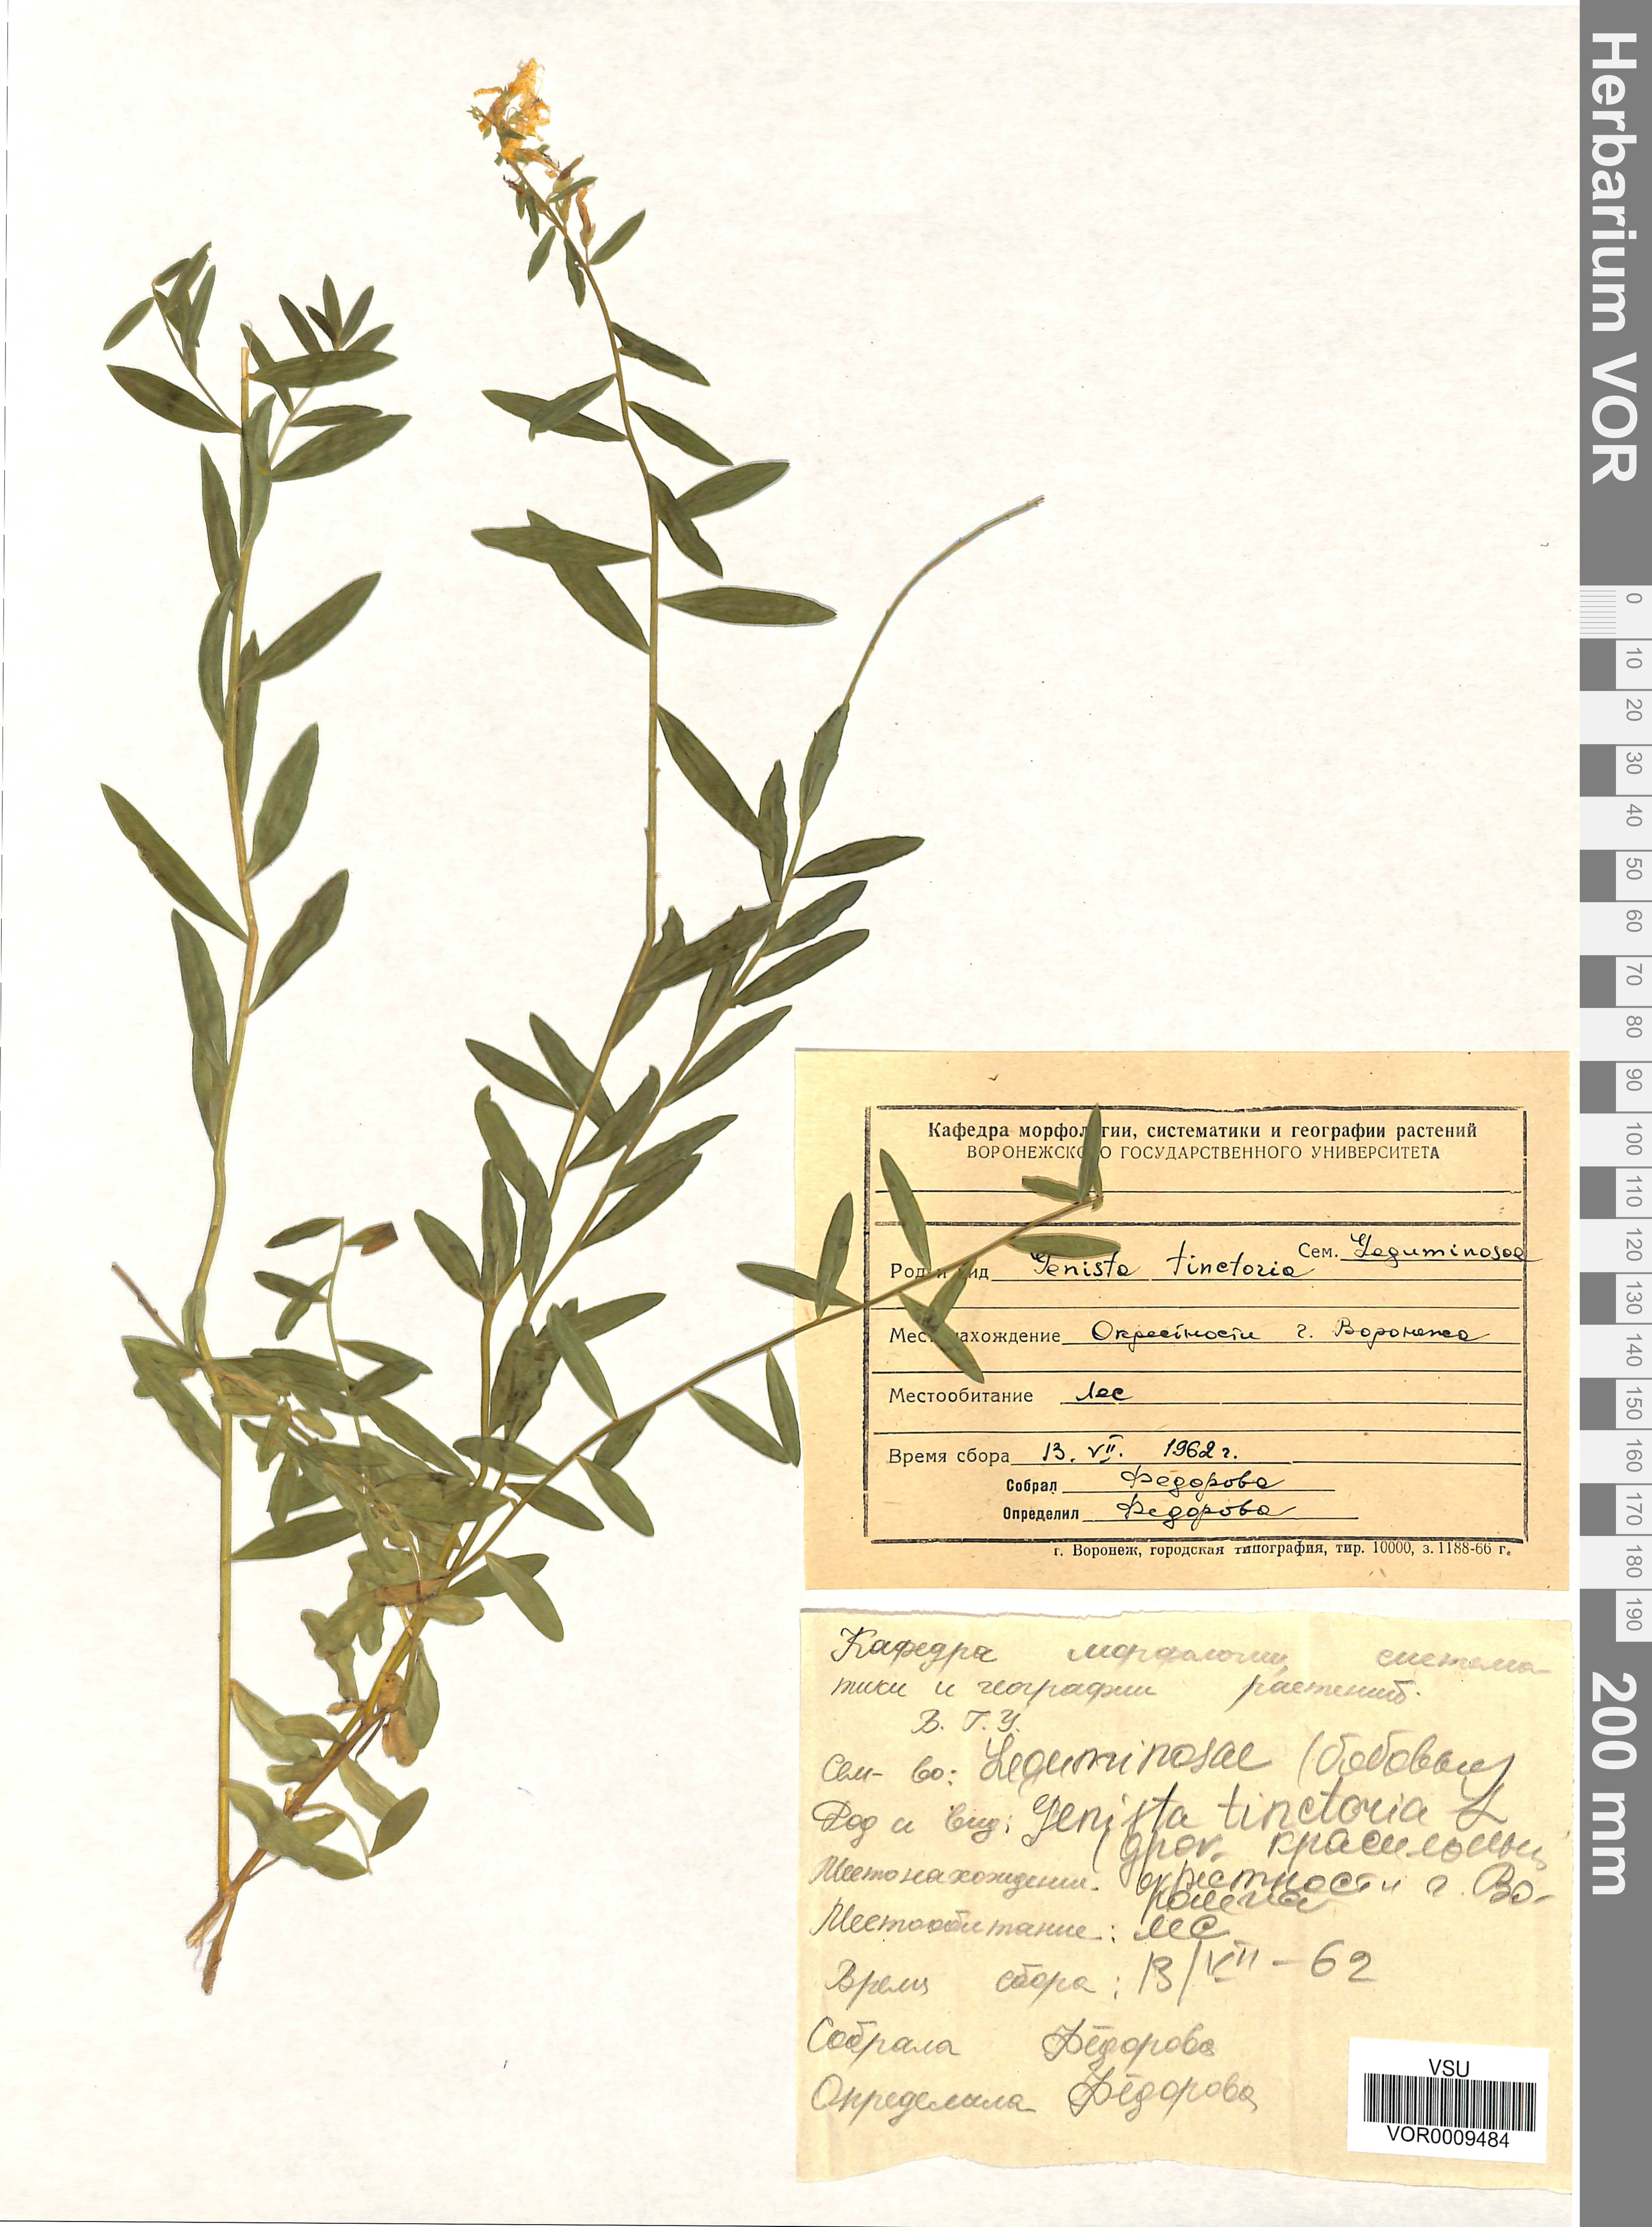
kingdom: Plantae
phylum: Tracheophyta
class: Magnoliopsida
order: Fabales
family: Fabaceae
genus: Genista
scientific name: Genista tinctoria
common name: Dyer's greenweed
